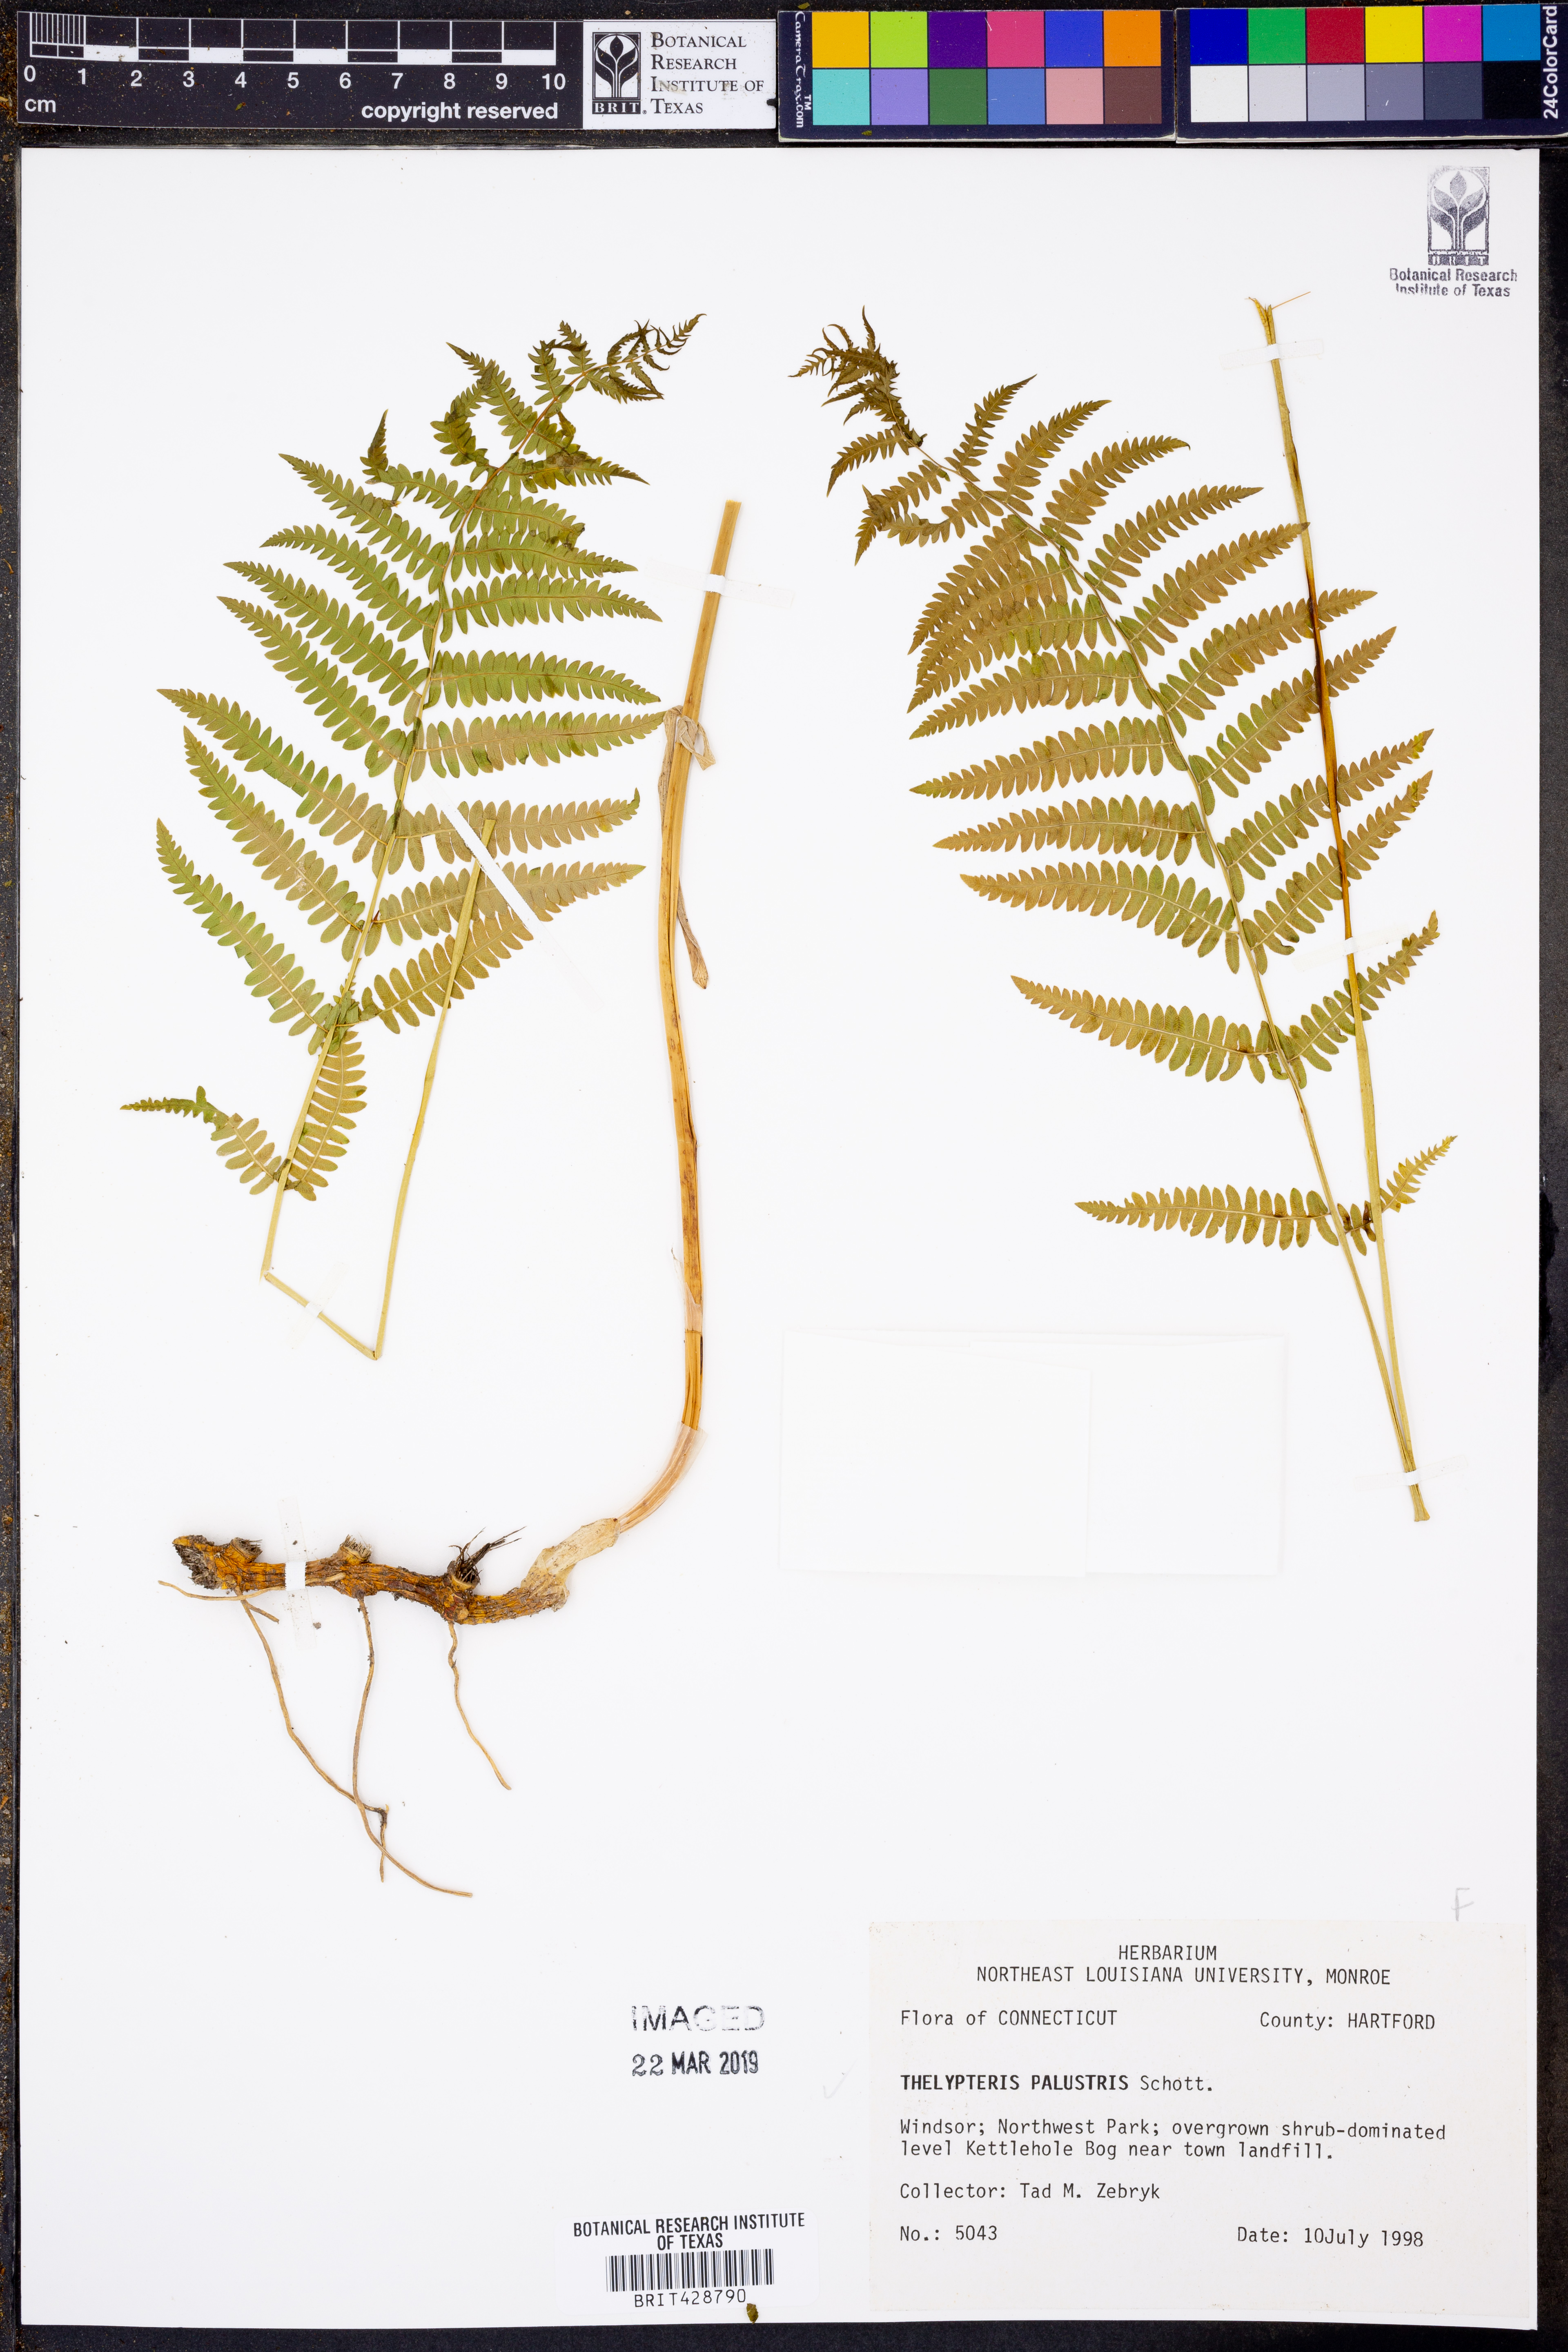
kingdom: Plantae
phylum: Tracheophyta
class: Polypodiopsida
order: Polypodiales
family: Thelypteridaceae
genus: Thelypteris
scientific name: Thelypteris palustris
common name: Marsh fern
